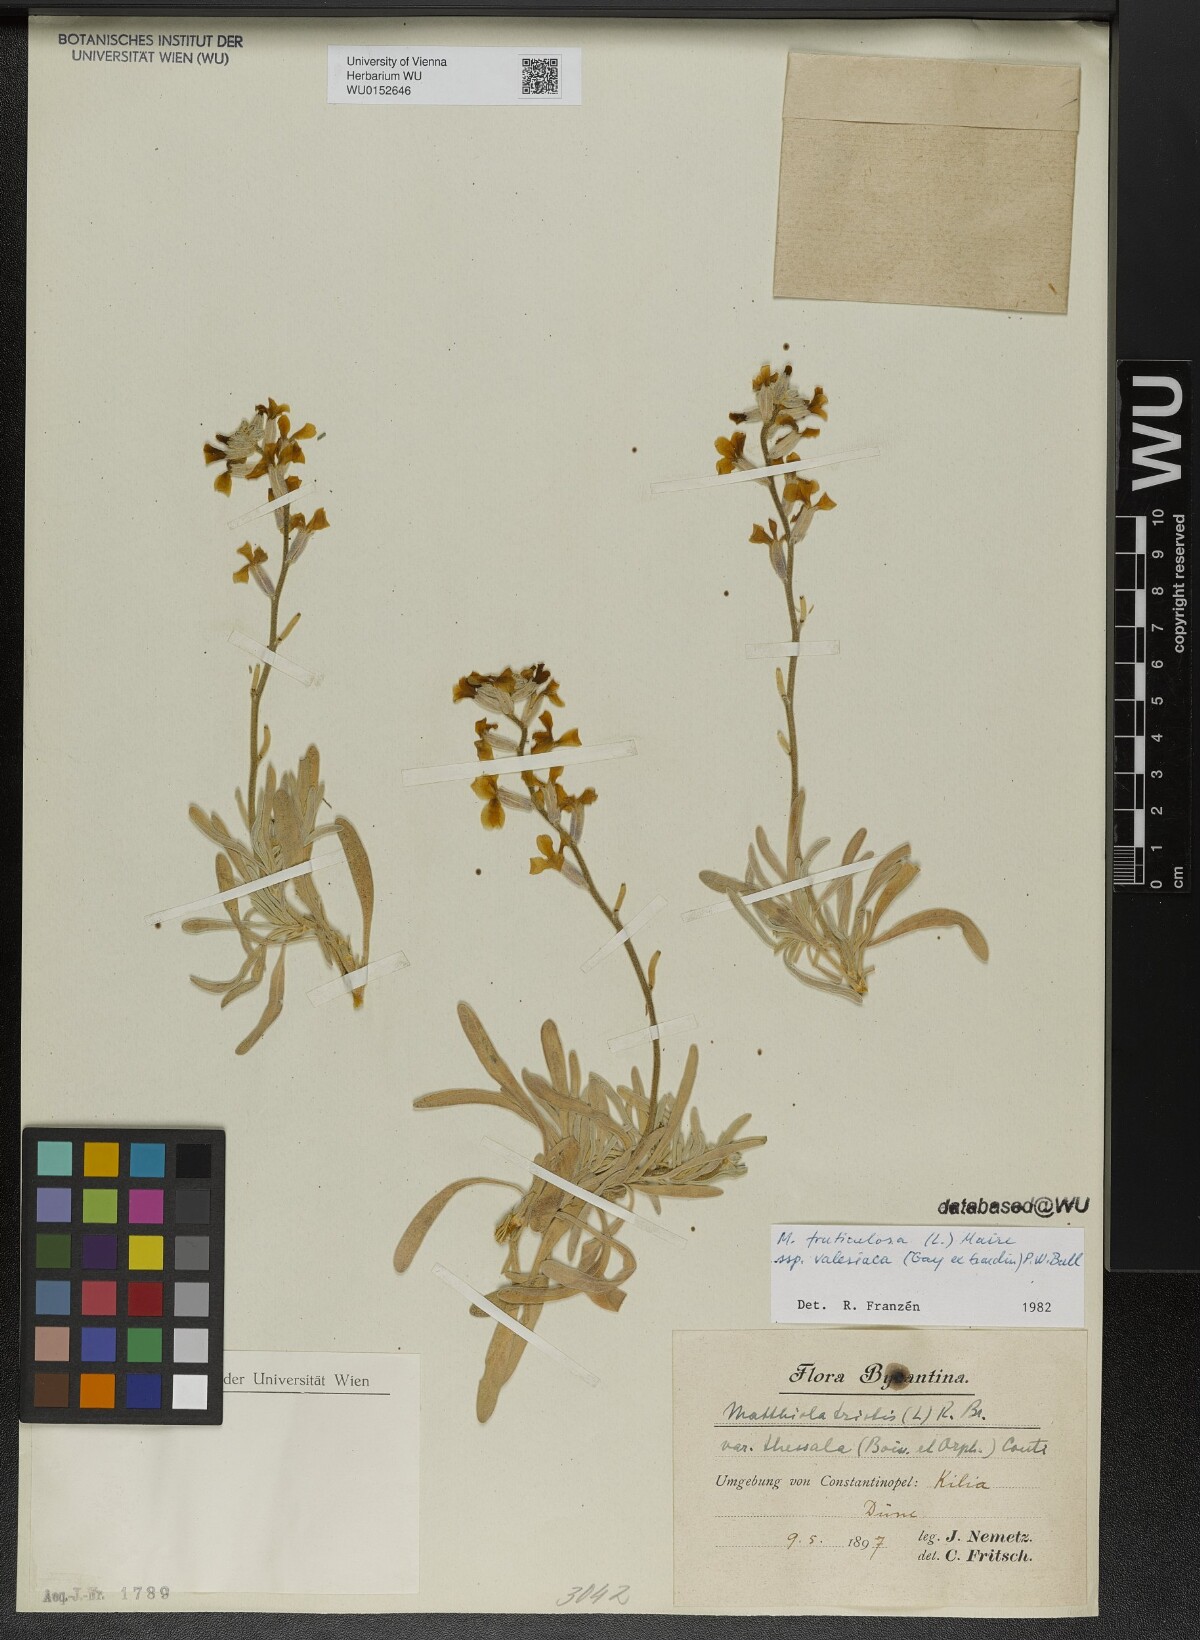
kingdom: Plantae
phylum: Tracheophyta
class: Magnoliopsida
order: Brassicales
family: Brassicaceae
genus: Matthiola
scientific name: Matthiola fruticulosa
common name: Sad stock
